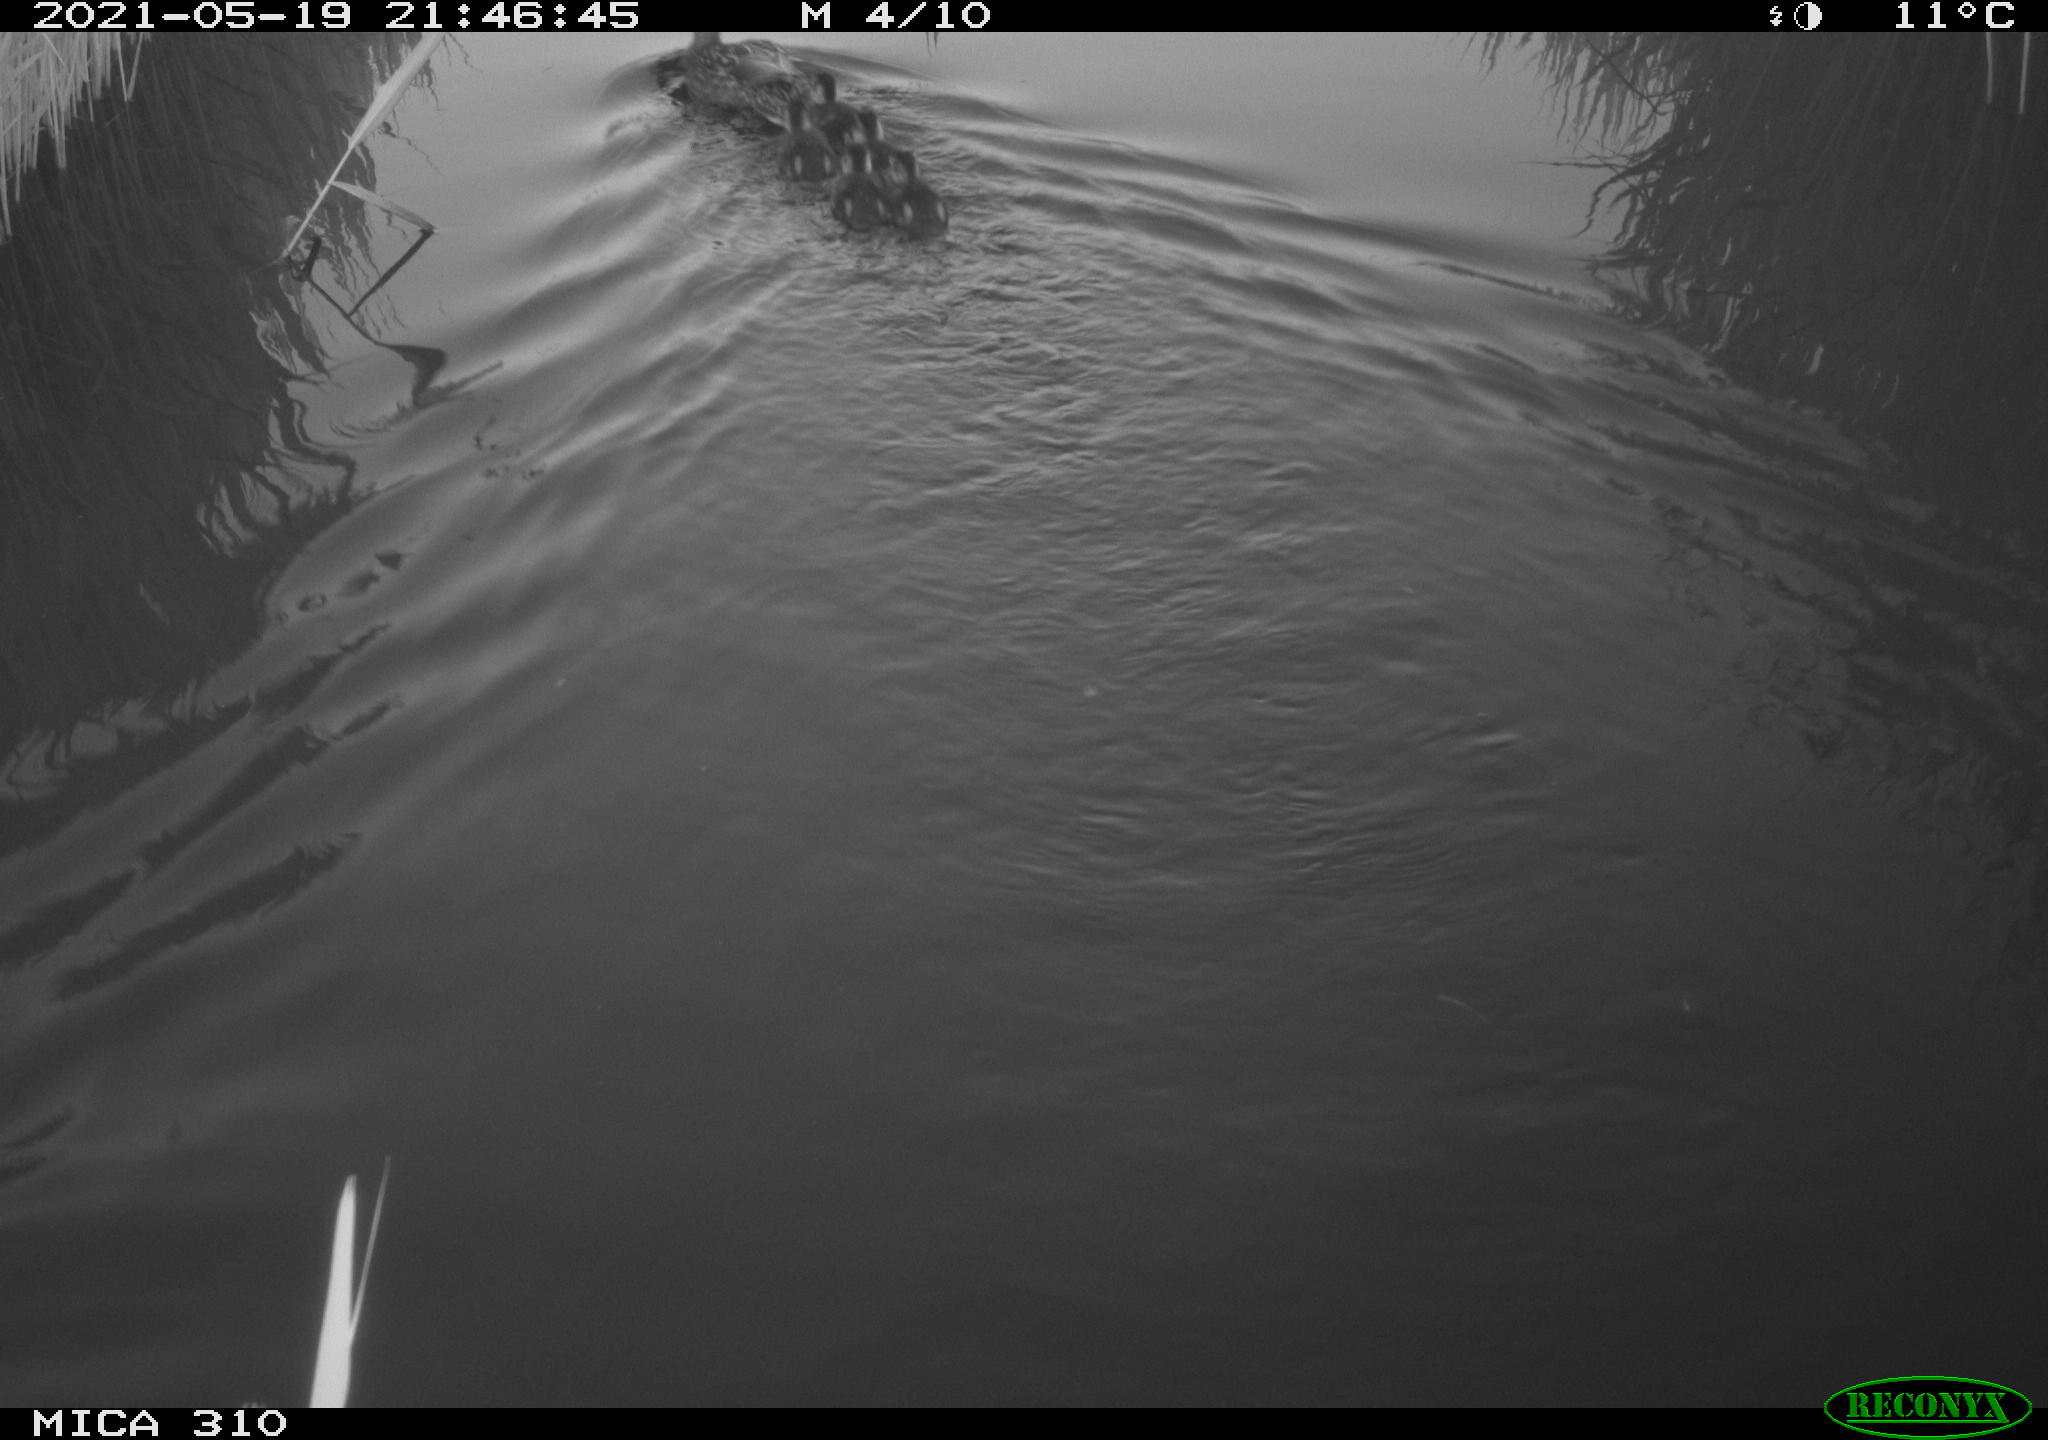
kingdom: Animalia
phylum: Chordata
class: Aves
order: Anseriformes
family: Anatidae
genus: Anas
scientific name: Anas platyrhynchos
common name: Mallard
